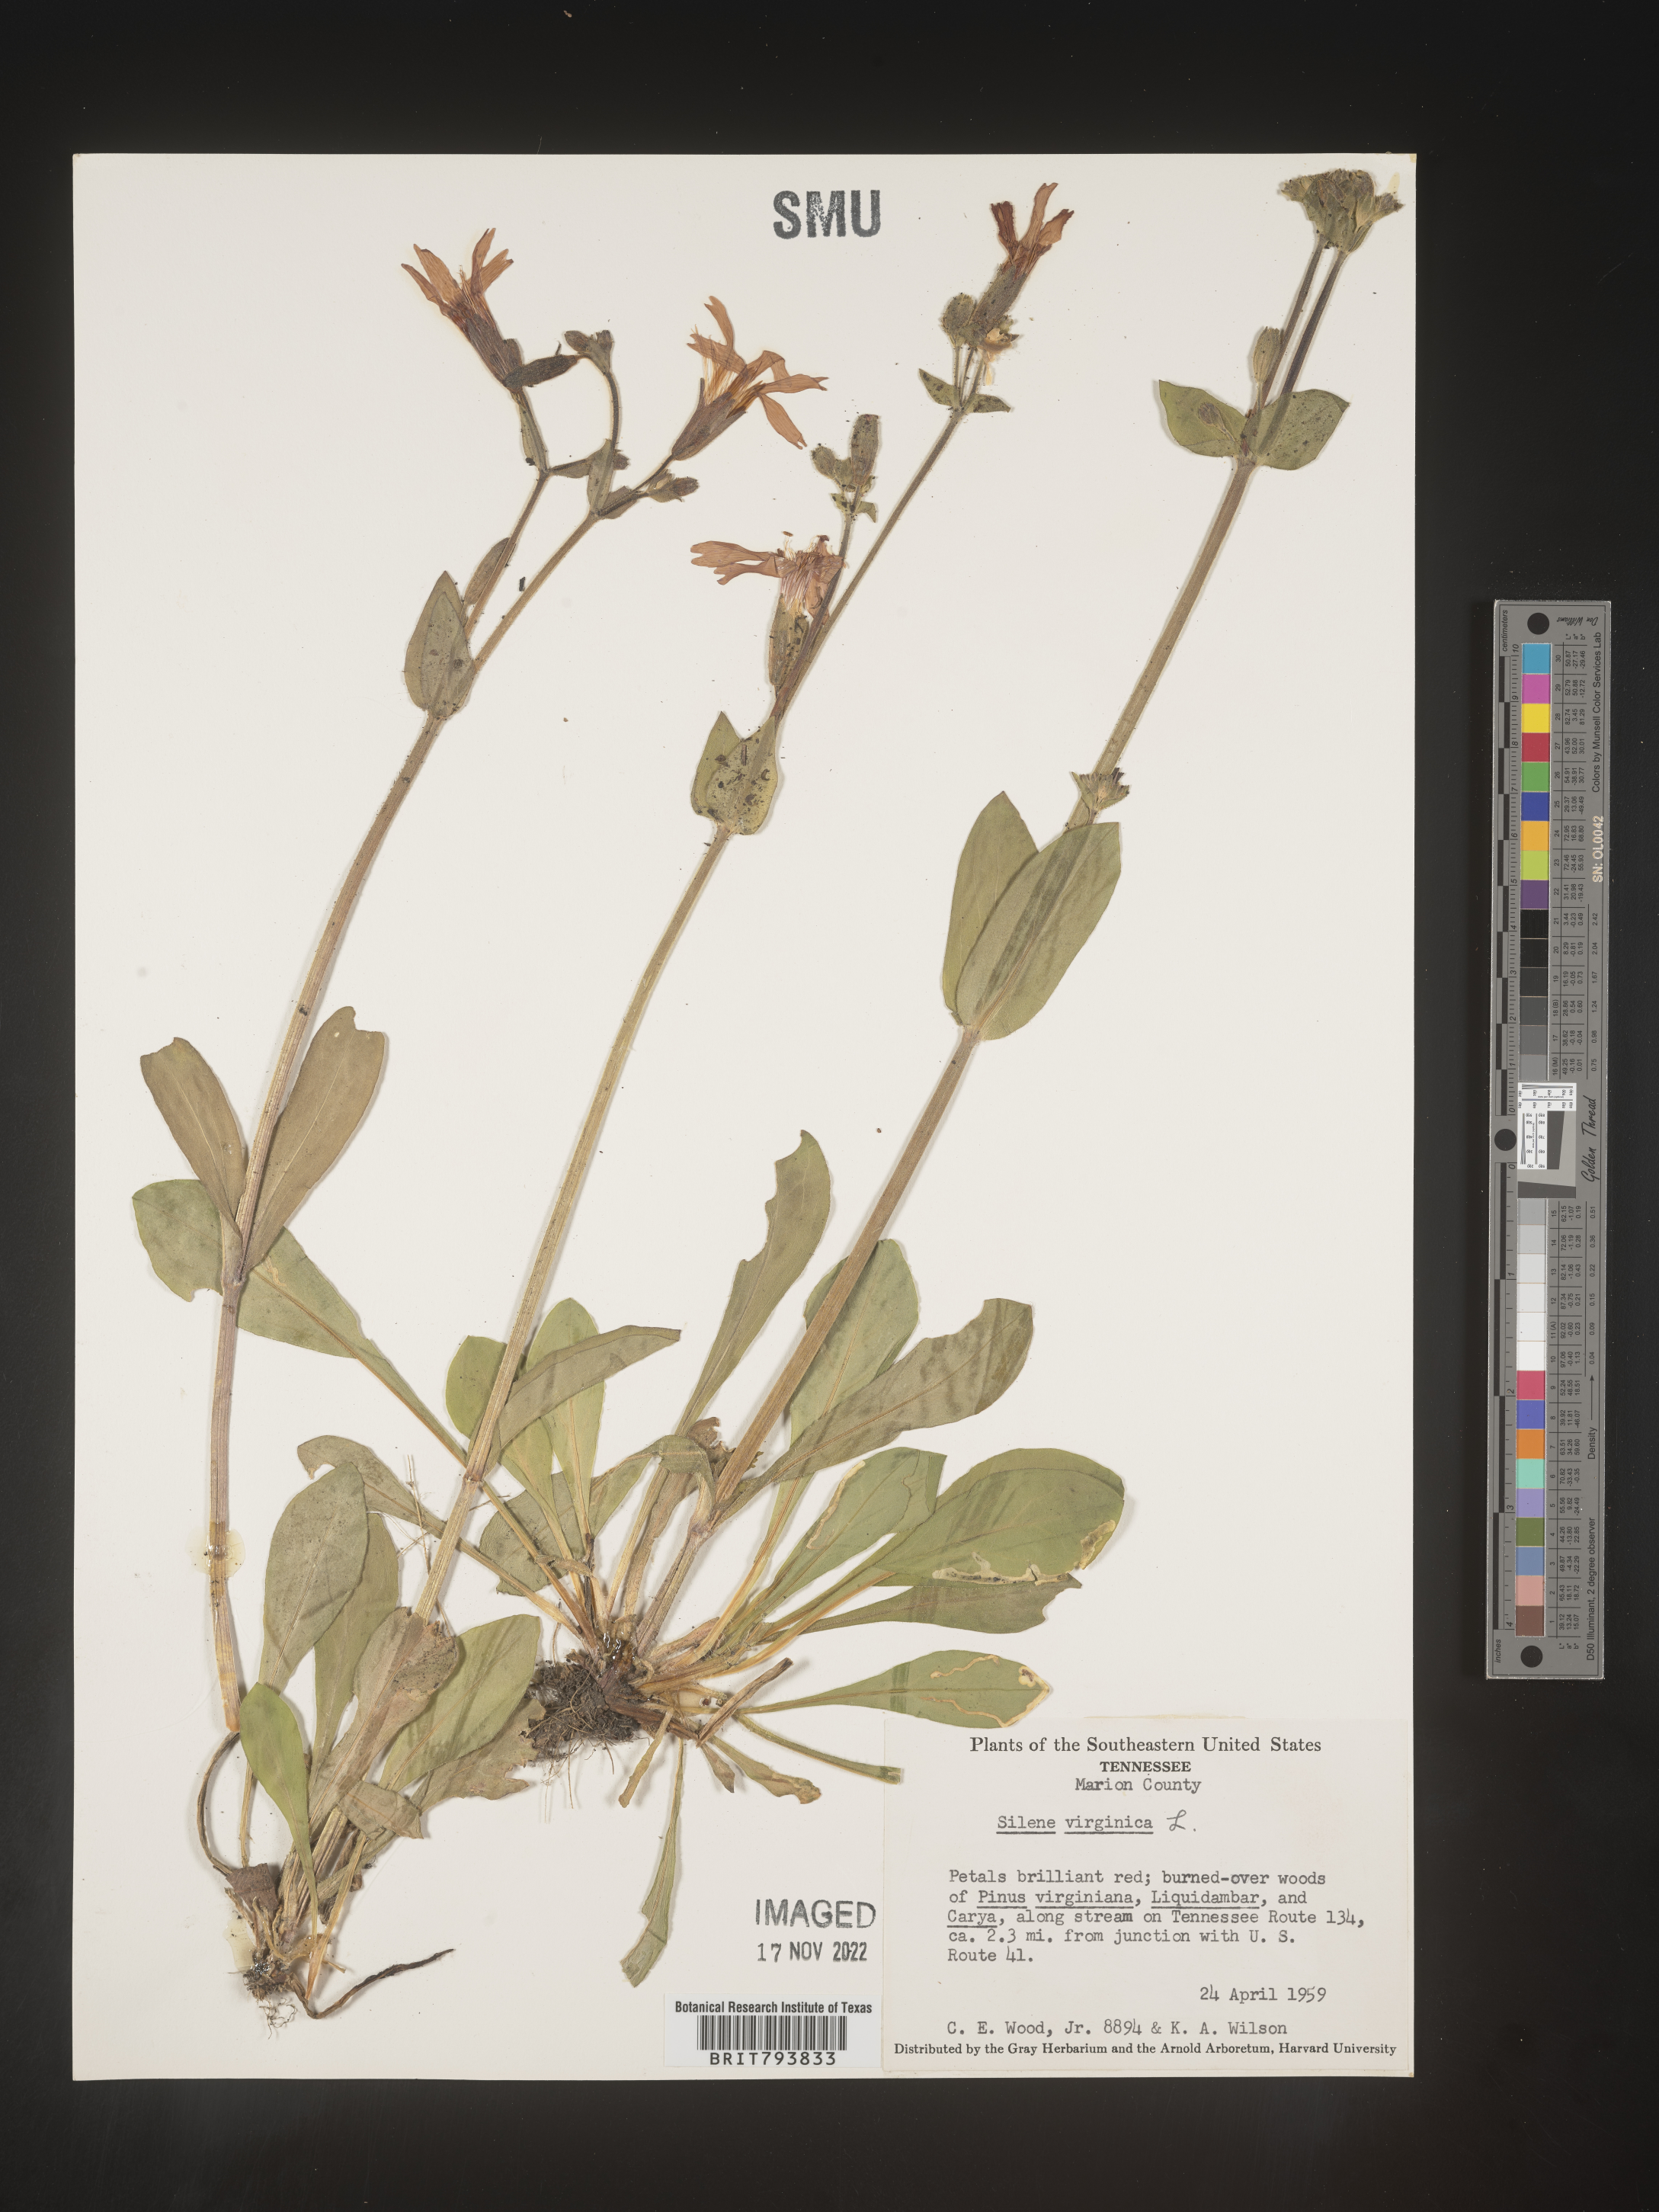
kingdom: Plantae
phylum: Tracheophyta
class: Magnoliopsida
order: Caryophyllales
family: Caryophyllaceae
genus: Silene
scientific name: Silene virginica
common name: Fire-pink
